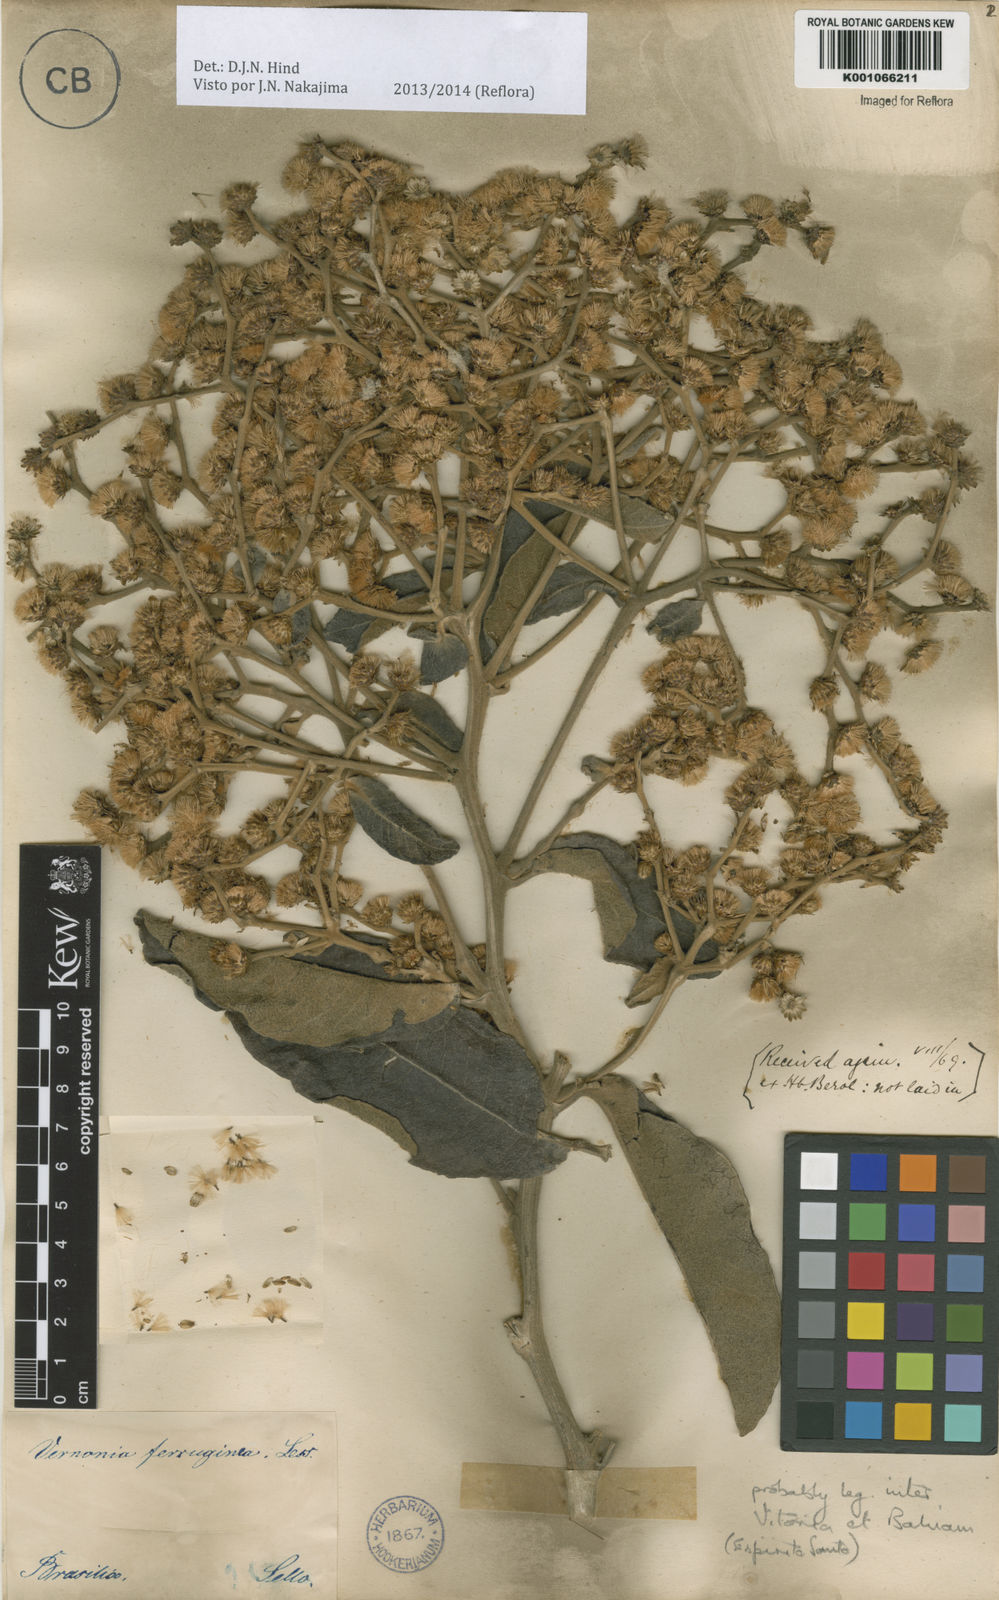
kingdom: Plantae
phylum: Tracheophyta
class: Magnoliopsida
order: Asterales
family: Asteraceae
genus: Vernonanthura
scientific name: Vernonanthura ferruginea
